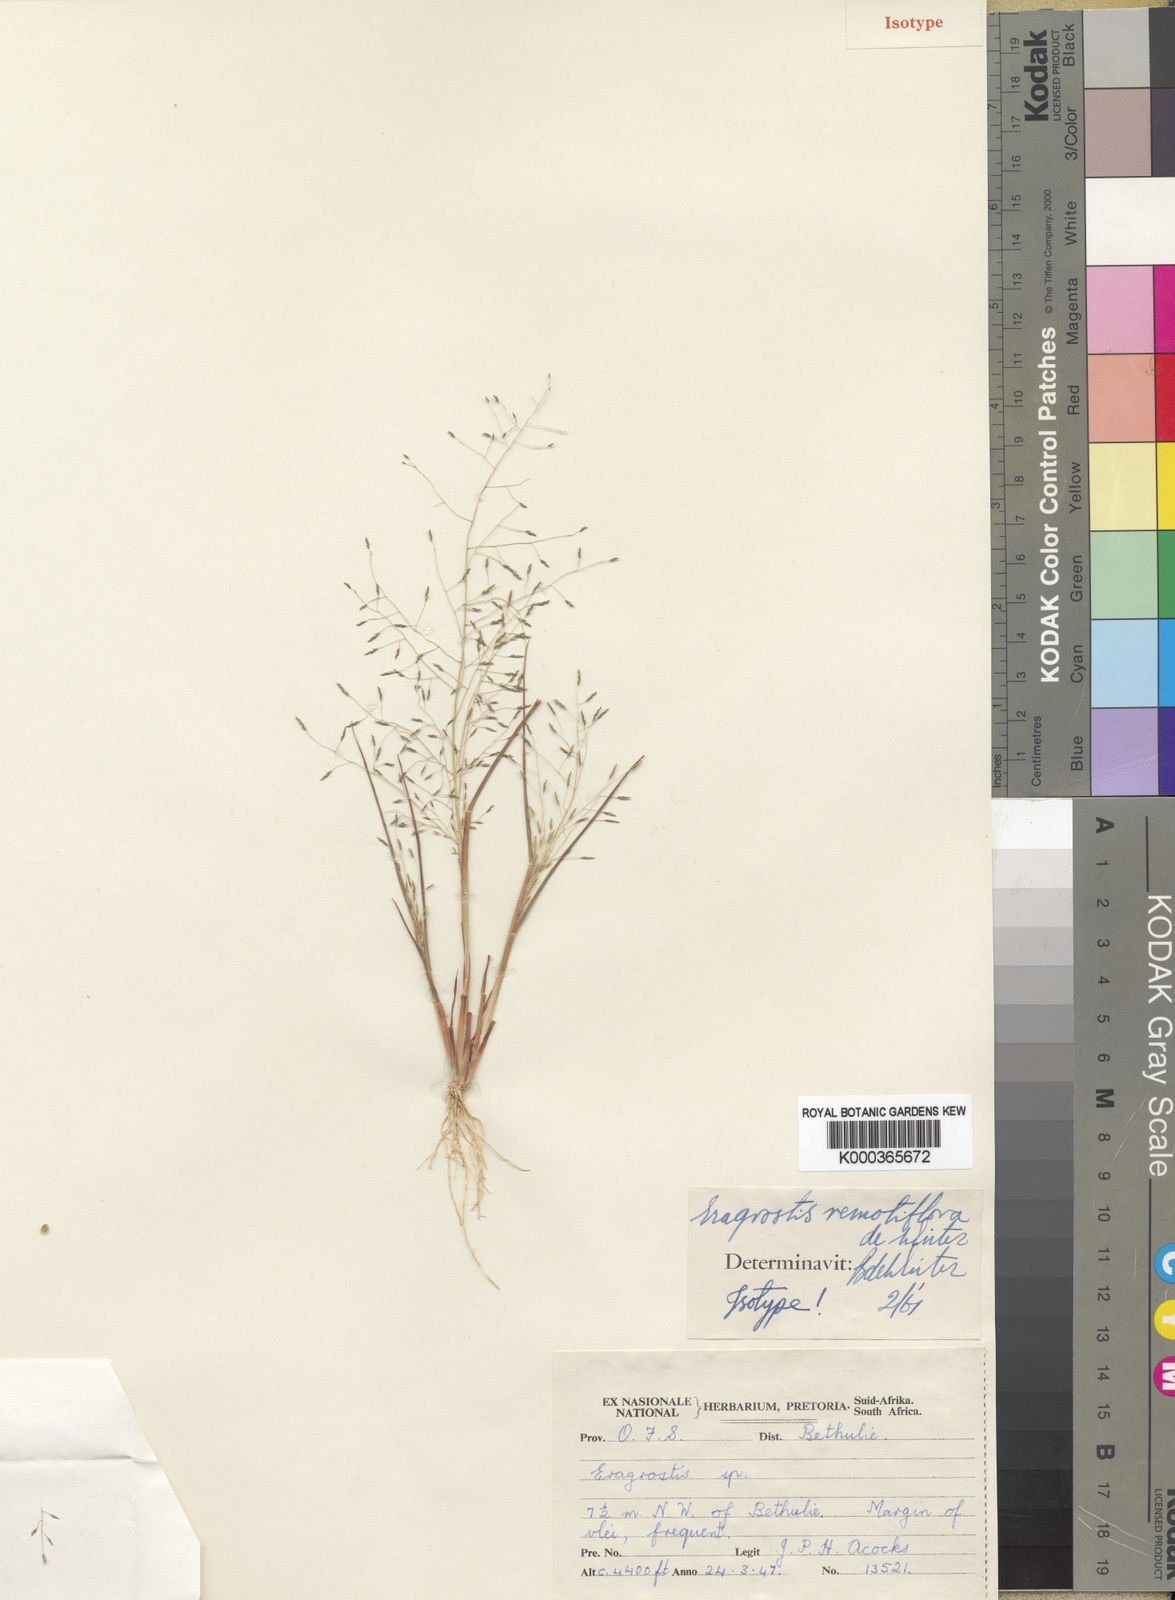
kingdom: Plantae
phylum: Tracheophyta
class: Liliopsida
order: Poales
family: Poaceae
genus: Eragrostis
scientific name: Eragrostis remotiflora
